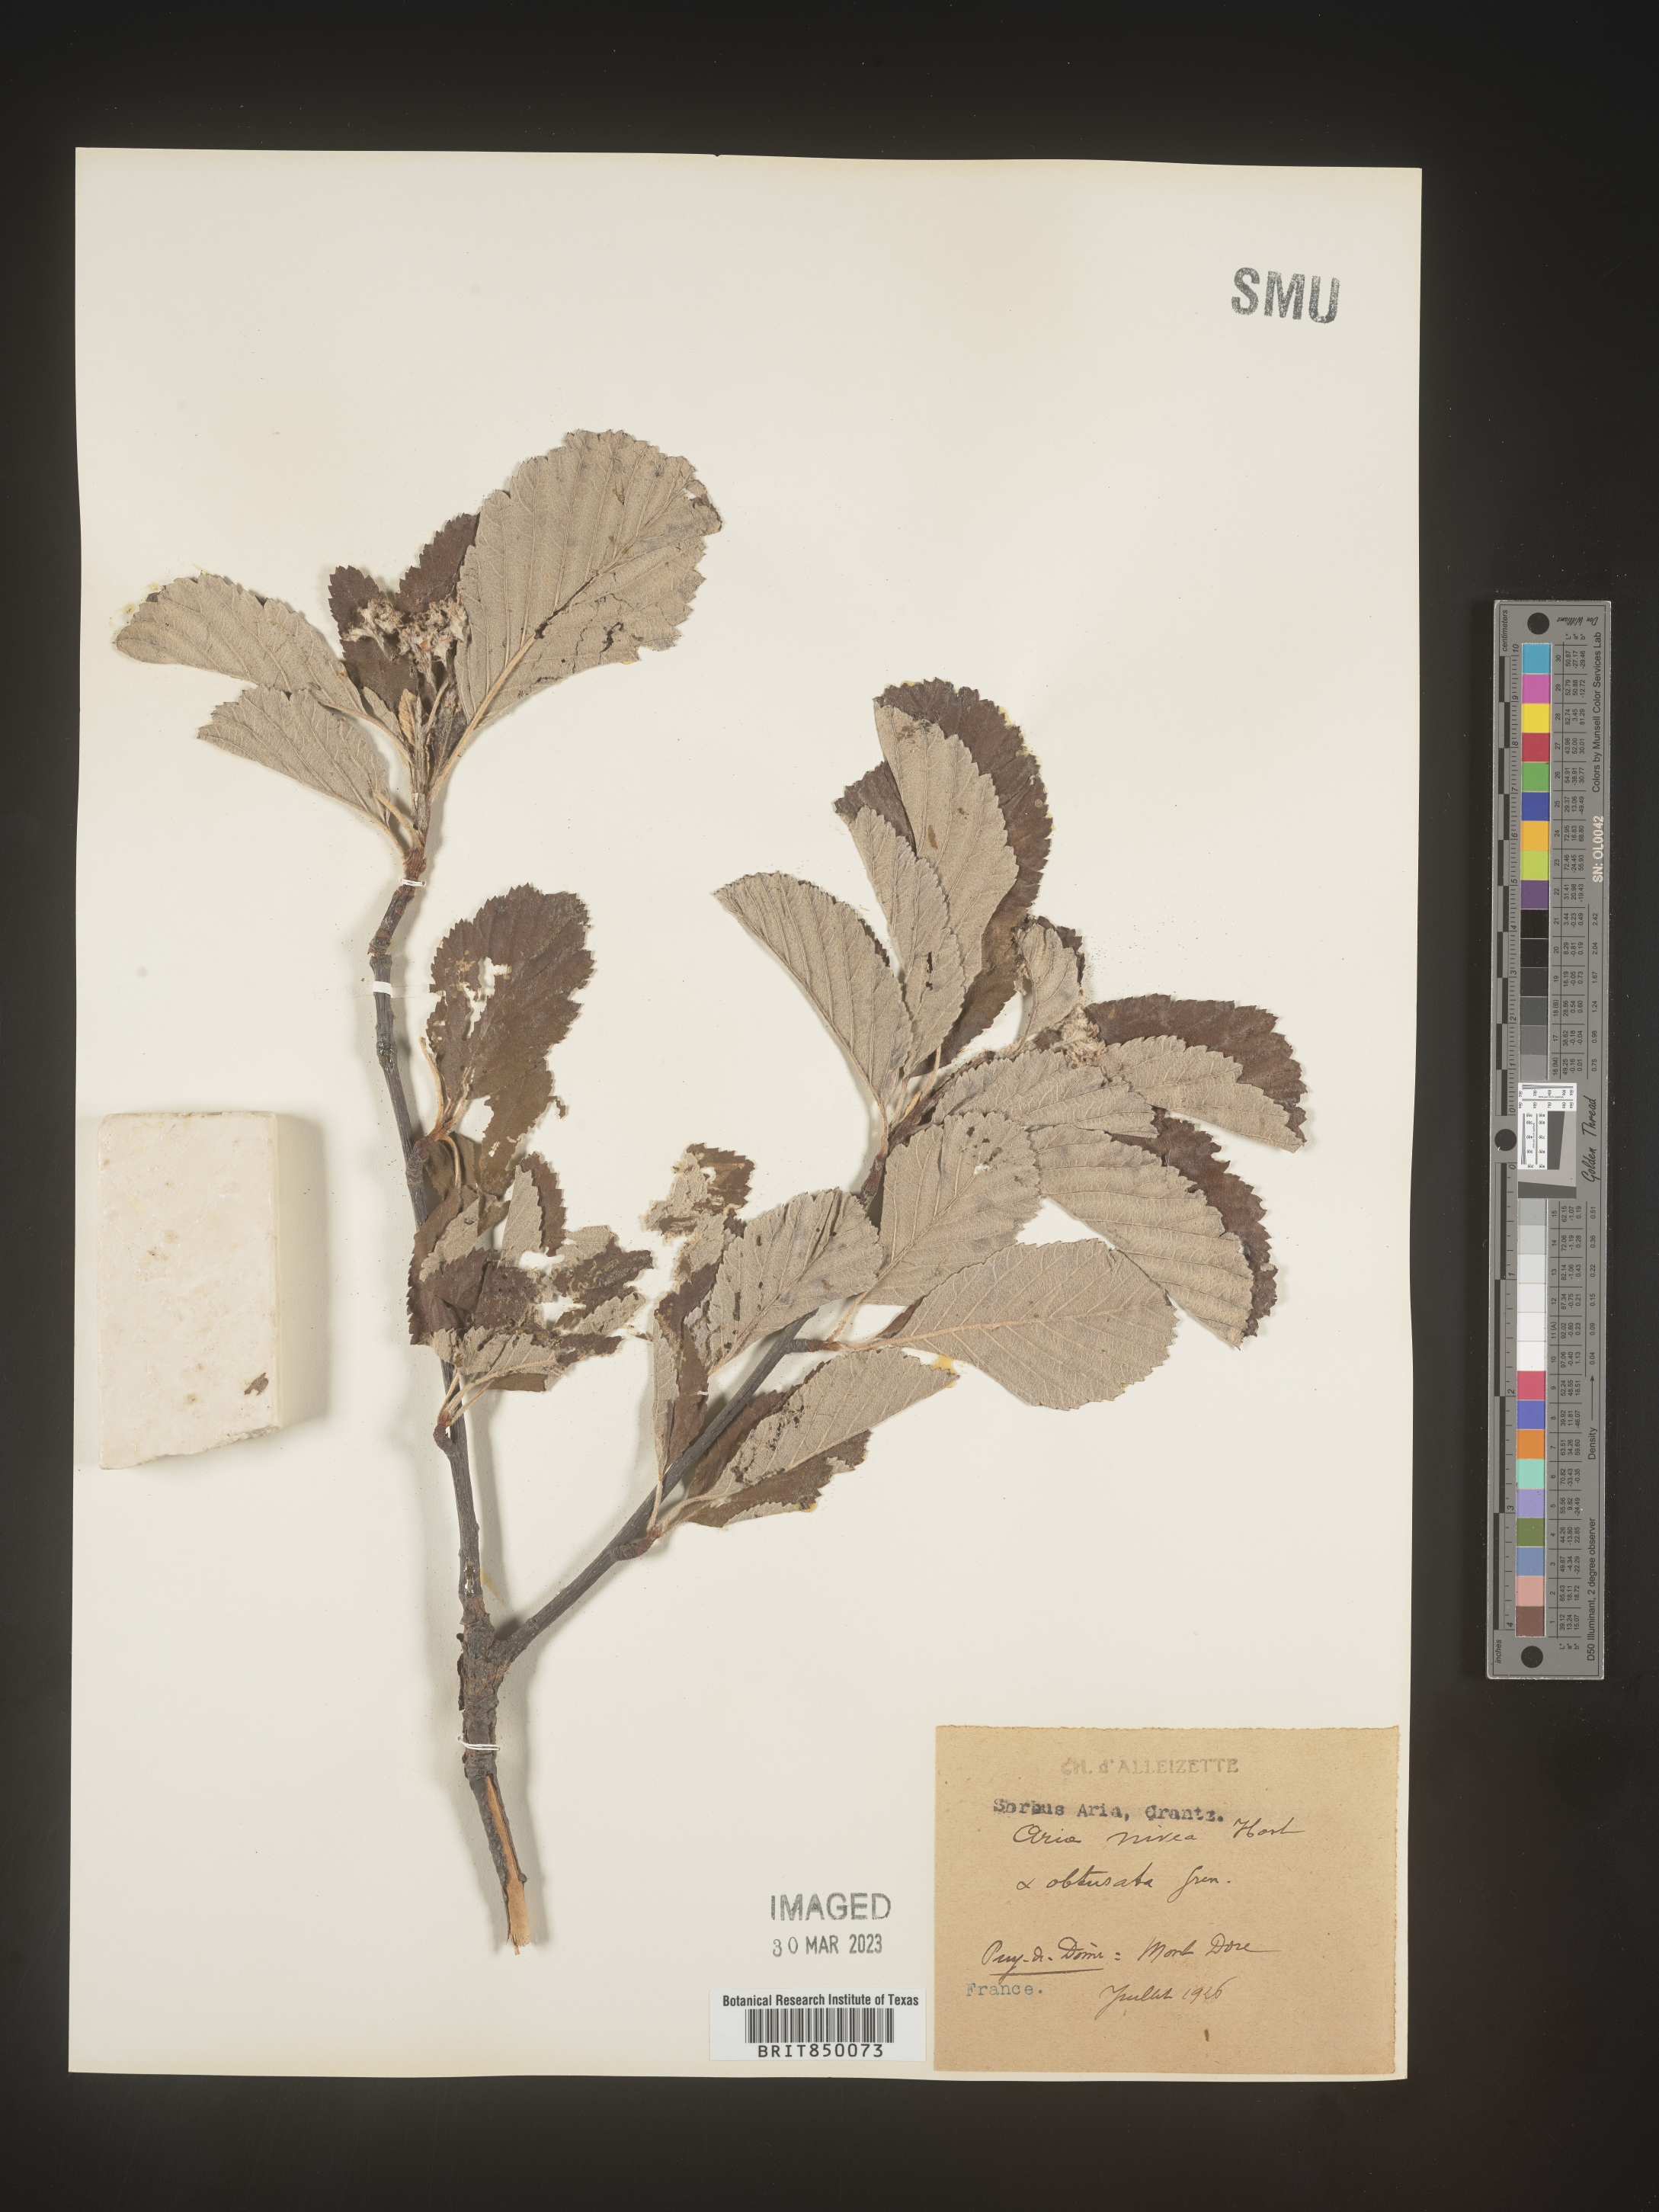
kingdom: Plantae
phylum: Tracheophyta
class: Magnoliopsida
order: Rosales
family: Rosaceae
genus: Sorbus
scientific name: Sorbus
